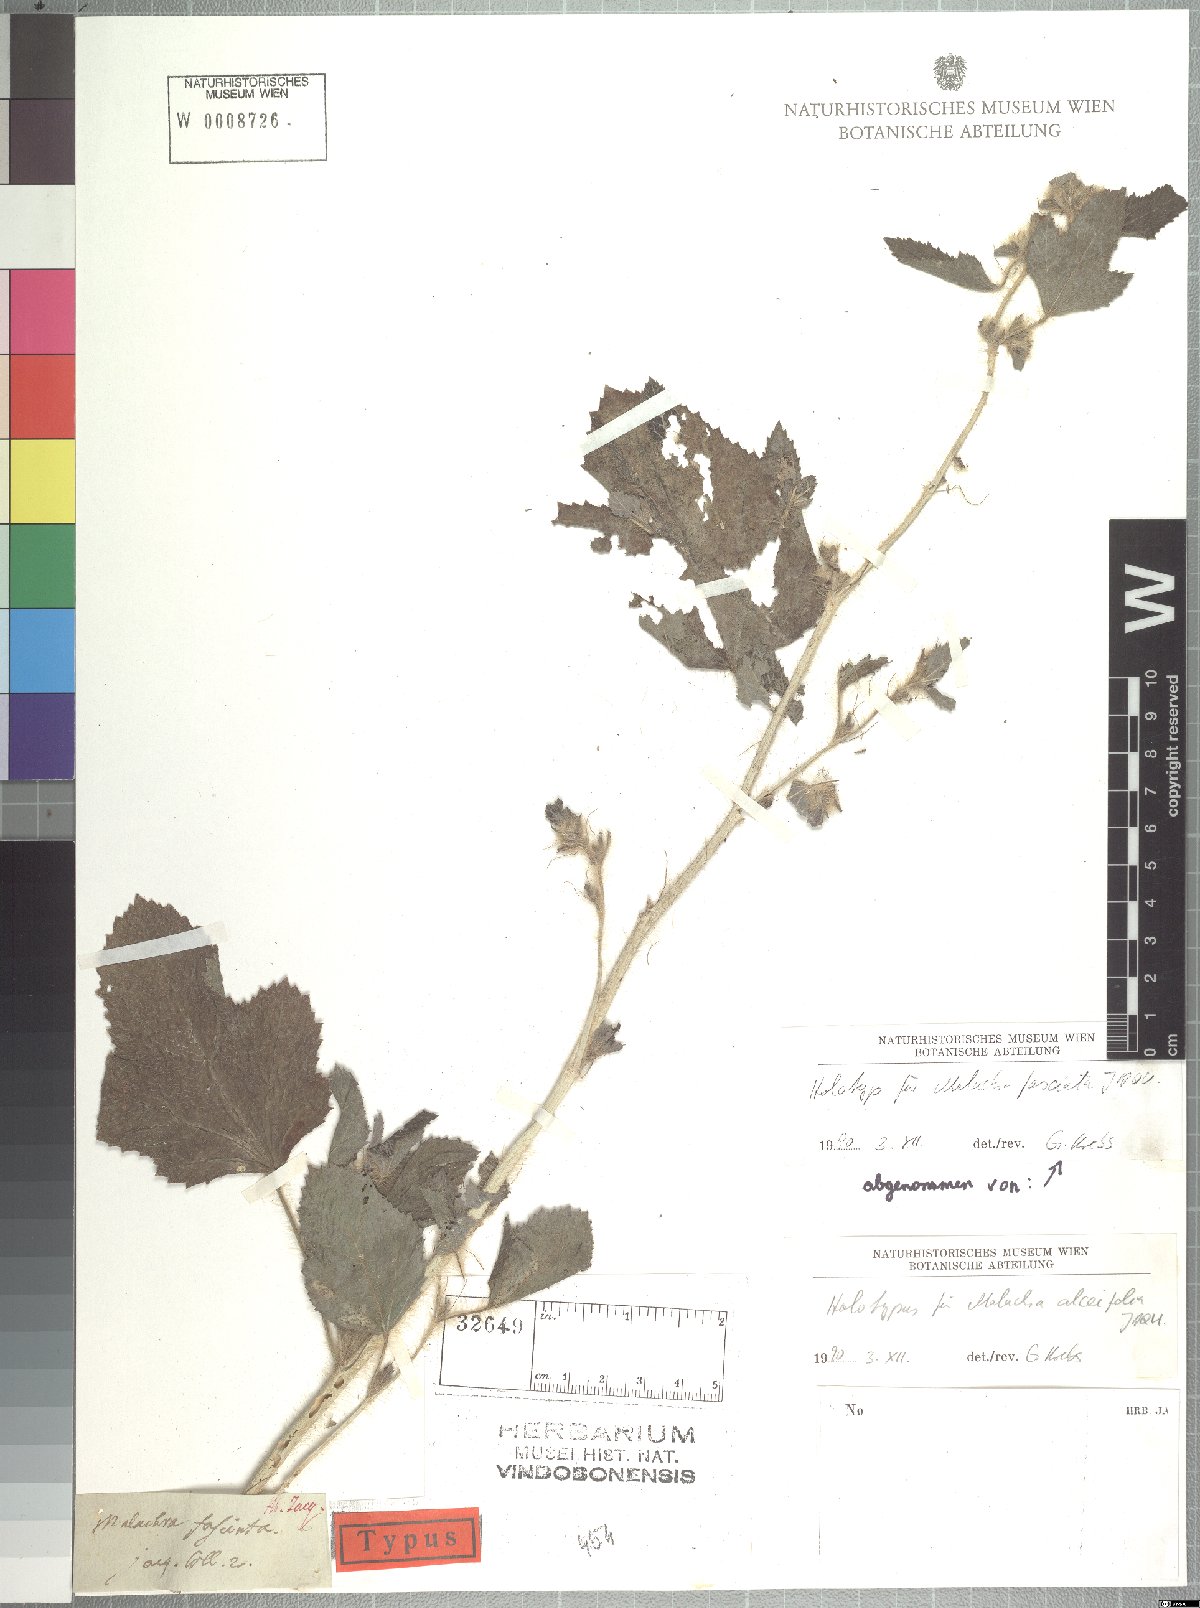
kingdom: Plantae
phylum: Tracheophyta
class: Magnoliopsida
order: Malvales
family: Malvaceae
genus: Malachra
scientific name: Malachra alceifolia
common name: Yellow leafbract
